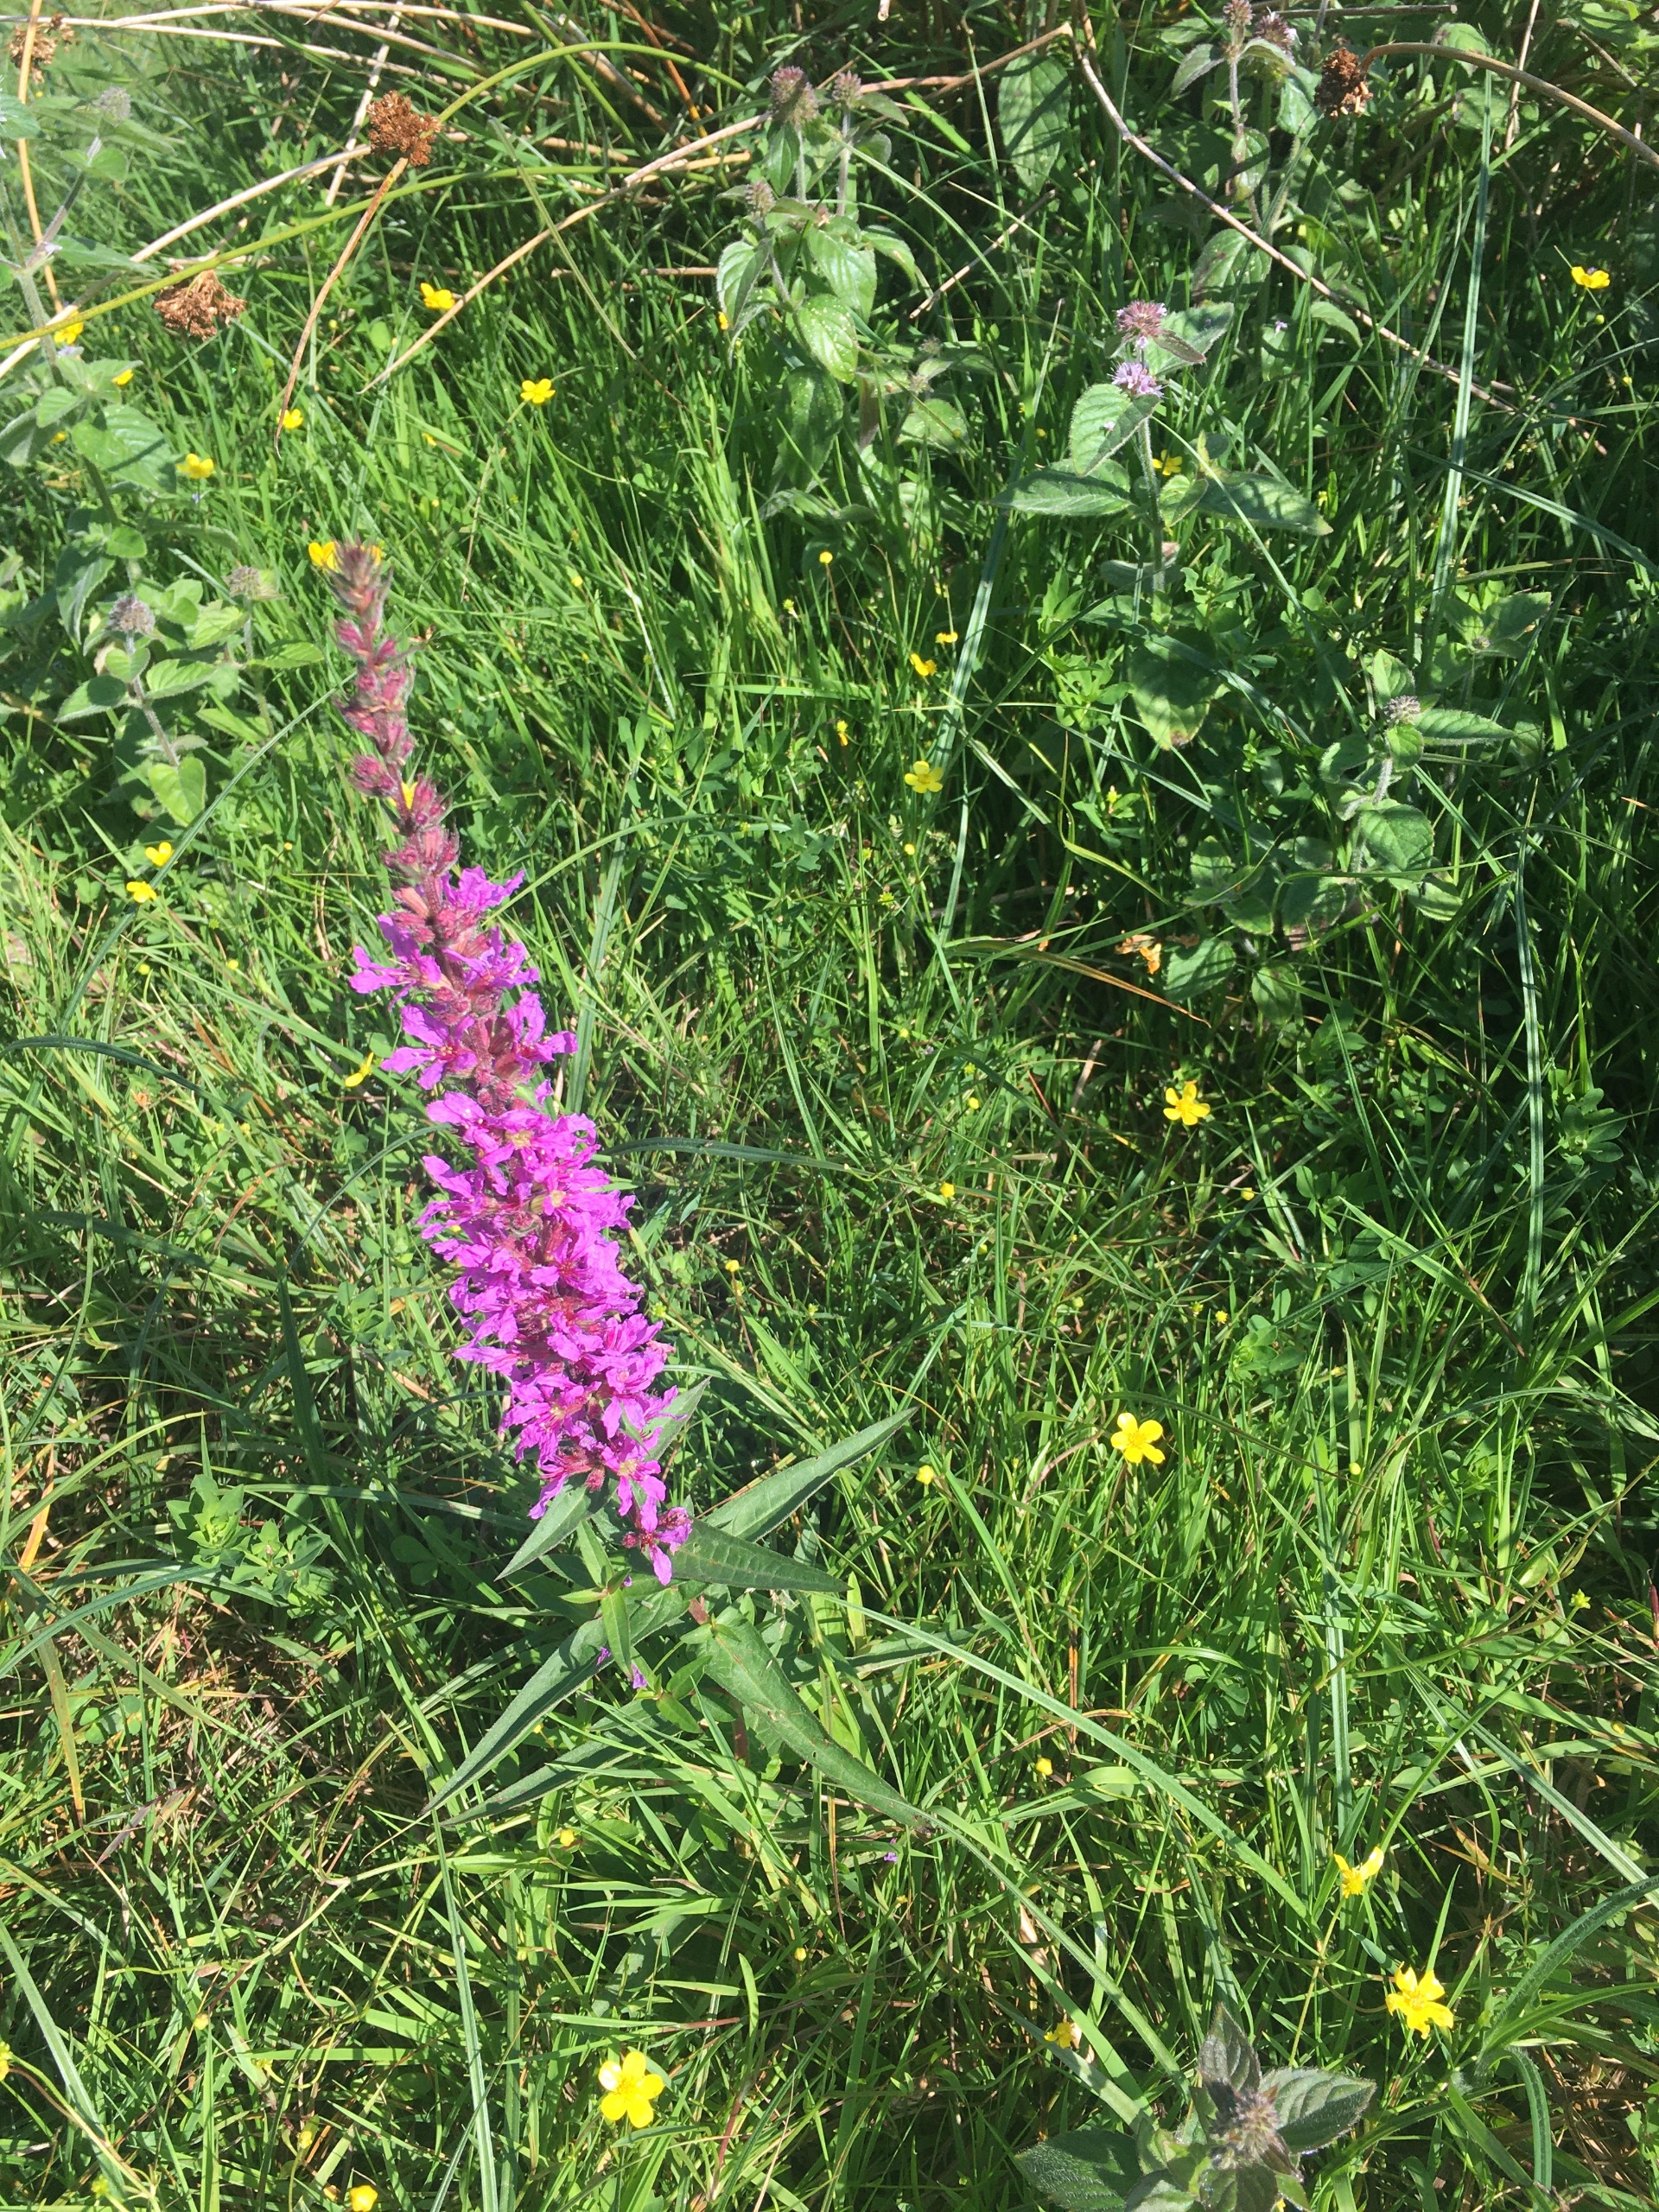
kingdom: Plantae
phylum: Tracheophyta
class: Magnoliopsida
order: Myrtales
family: Lythraceae
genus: Lythrum
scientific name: Lythrum salicaria
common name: Kattehale
